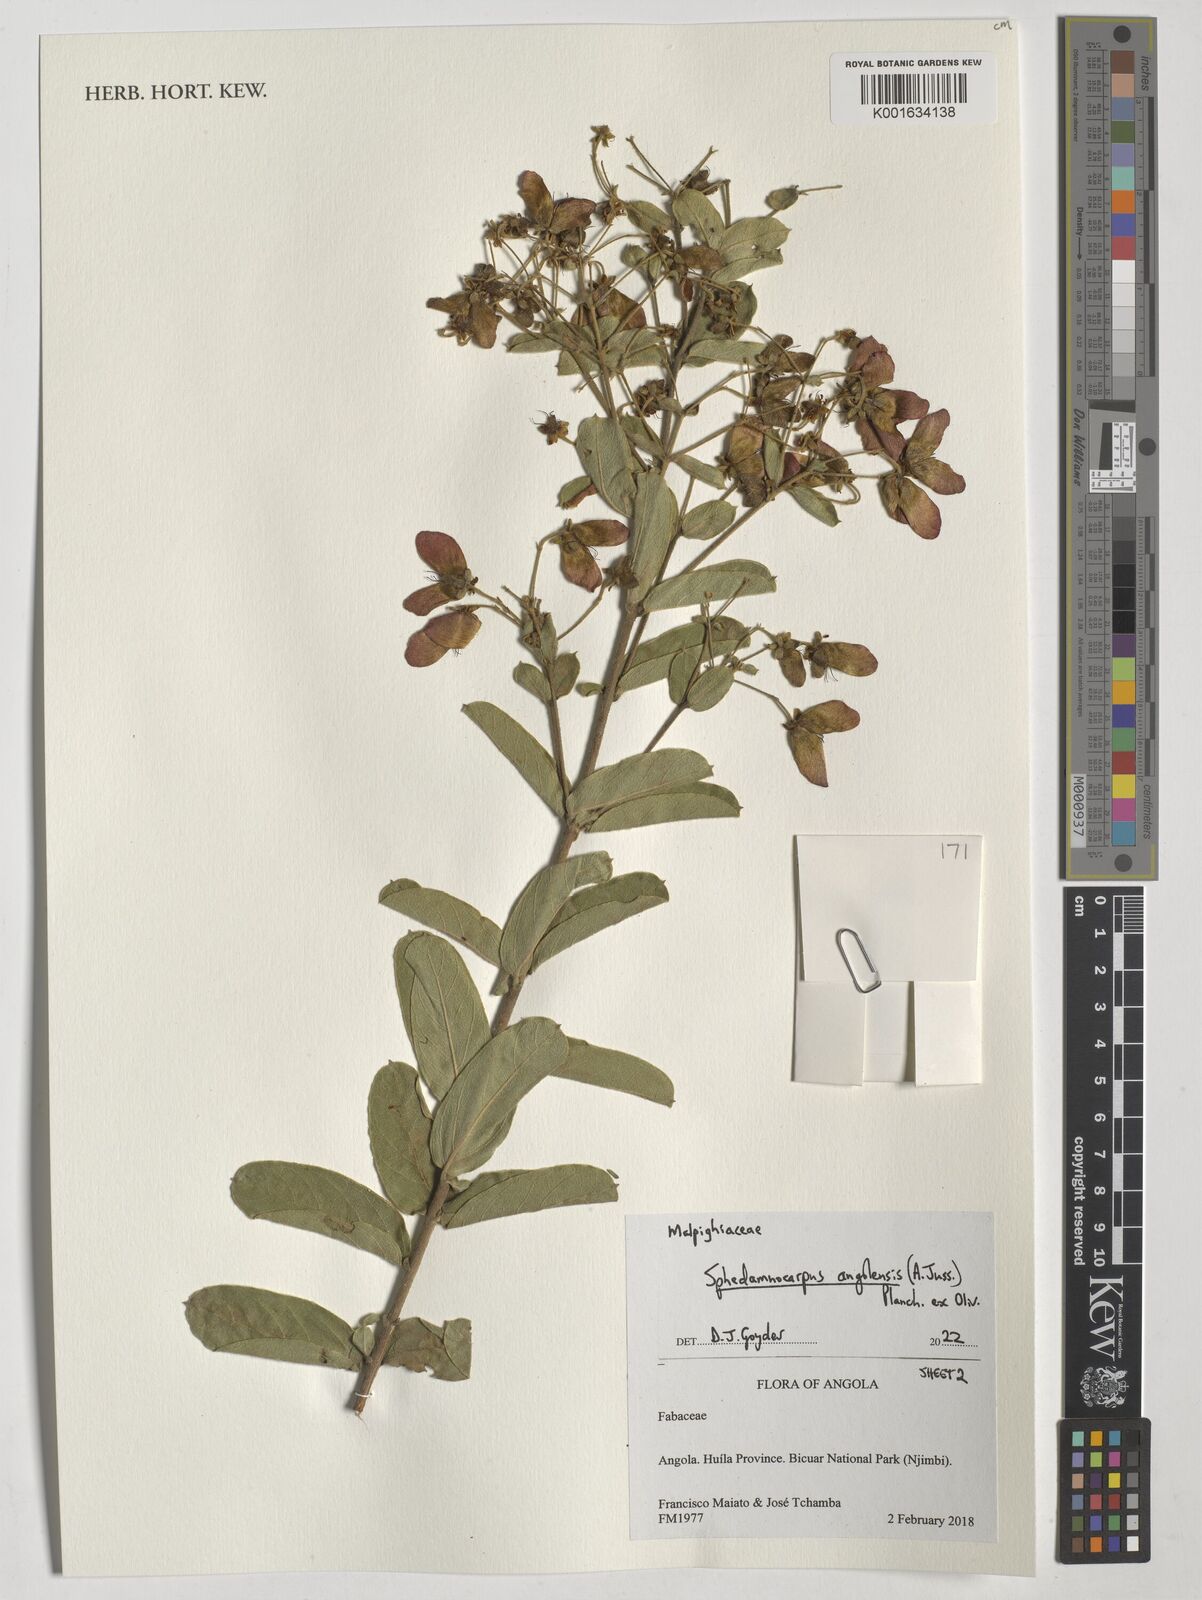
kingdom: Plantae
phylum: Tracheophyta
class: Magnoliopsida
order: Malpighiales
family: Malpighiaceae
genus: Sphedamnocarpus
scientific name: Sphedamnocarpus
